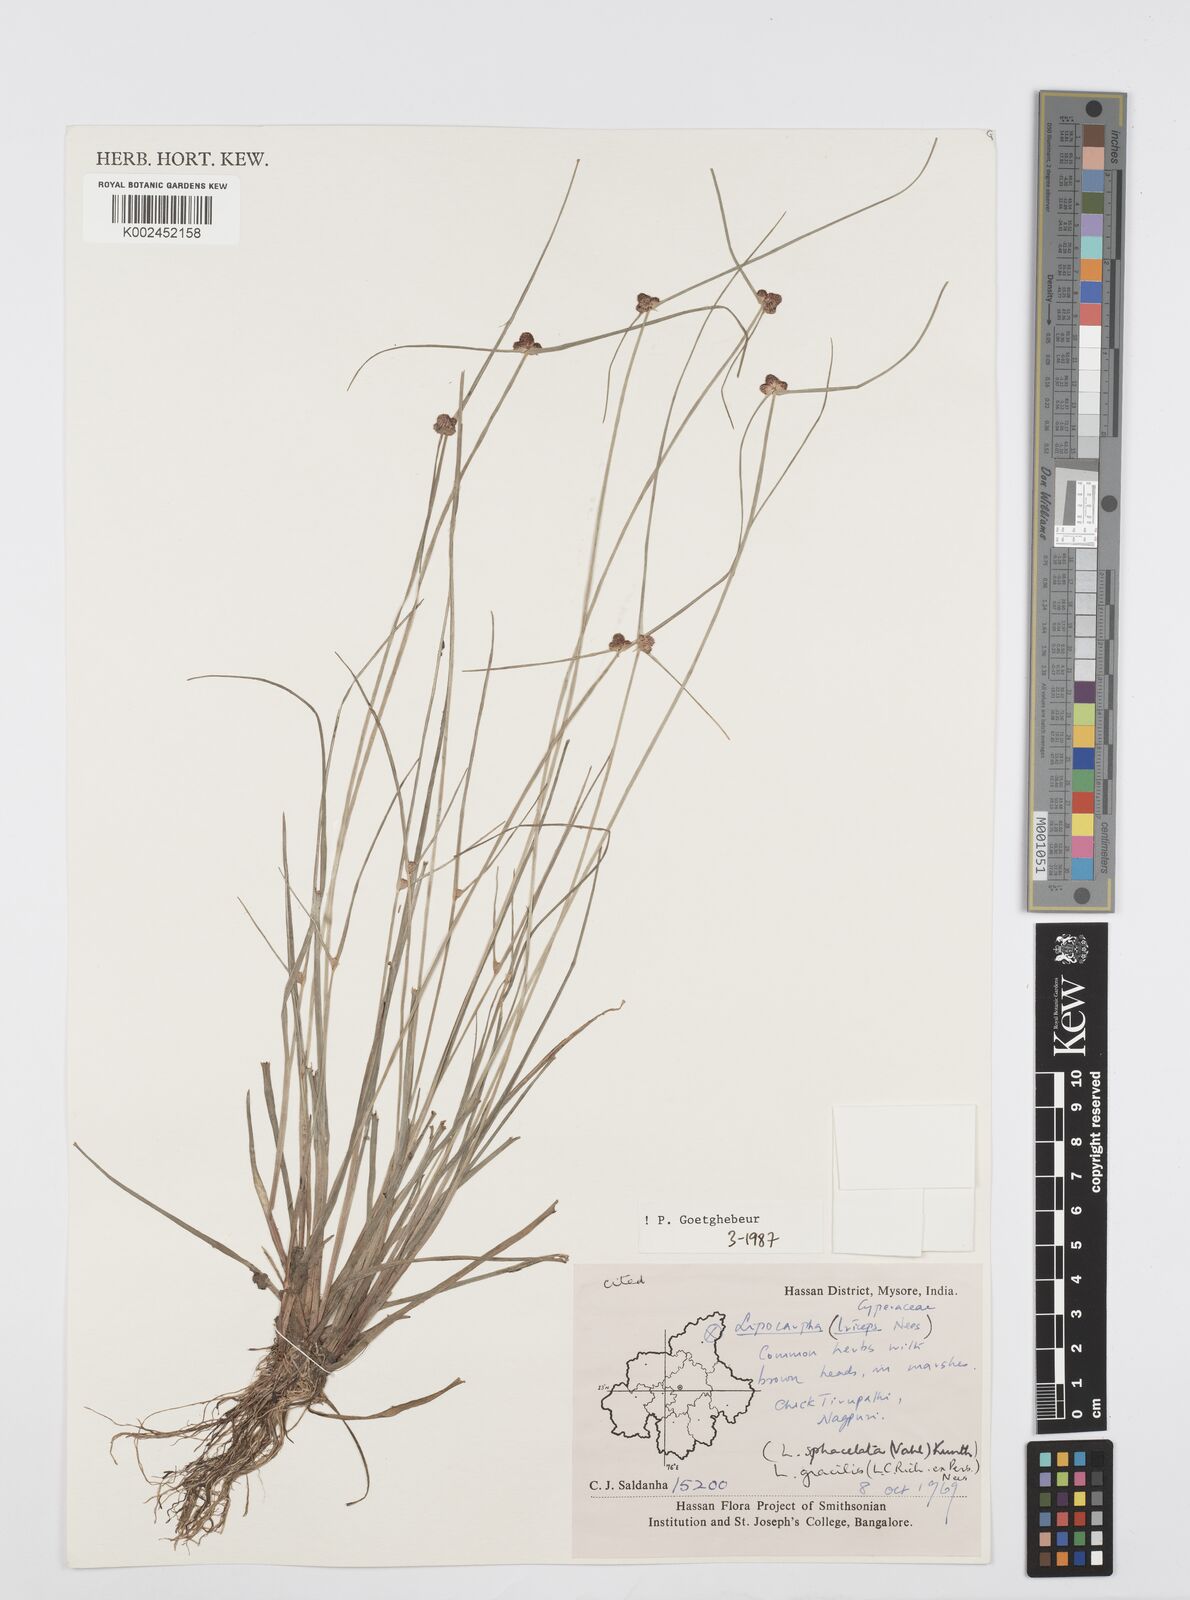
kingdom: Plantae
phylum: Tracheophyta
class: Liliopsida
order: Poales
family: Cyperaceae
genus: Cyperus
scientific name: Cyperus sphacelatus
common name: Roadside flatsedge
